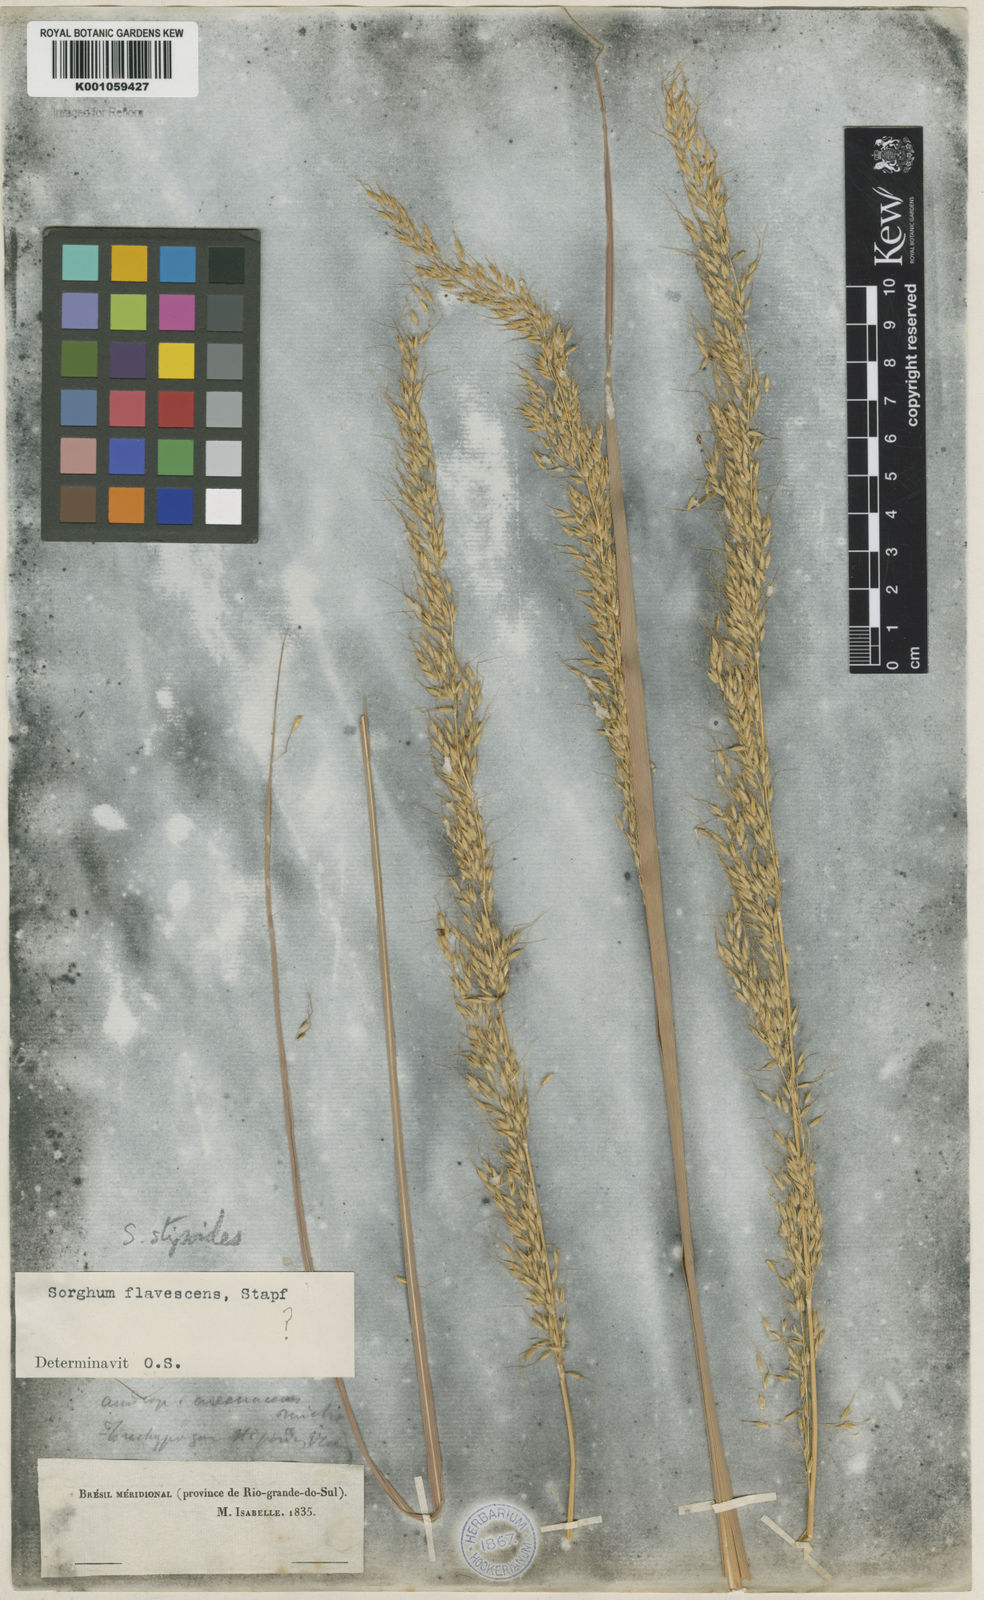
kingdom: Plantae
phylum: Tracheophyta
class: Liliopsida
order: Poales
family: Poaceae
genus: Sorghastrum
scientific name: Sorghastrum stipoides
